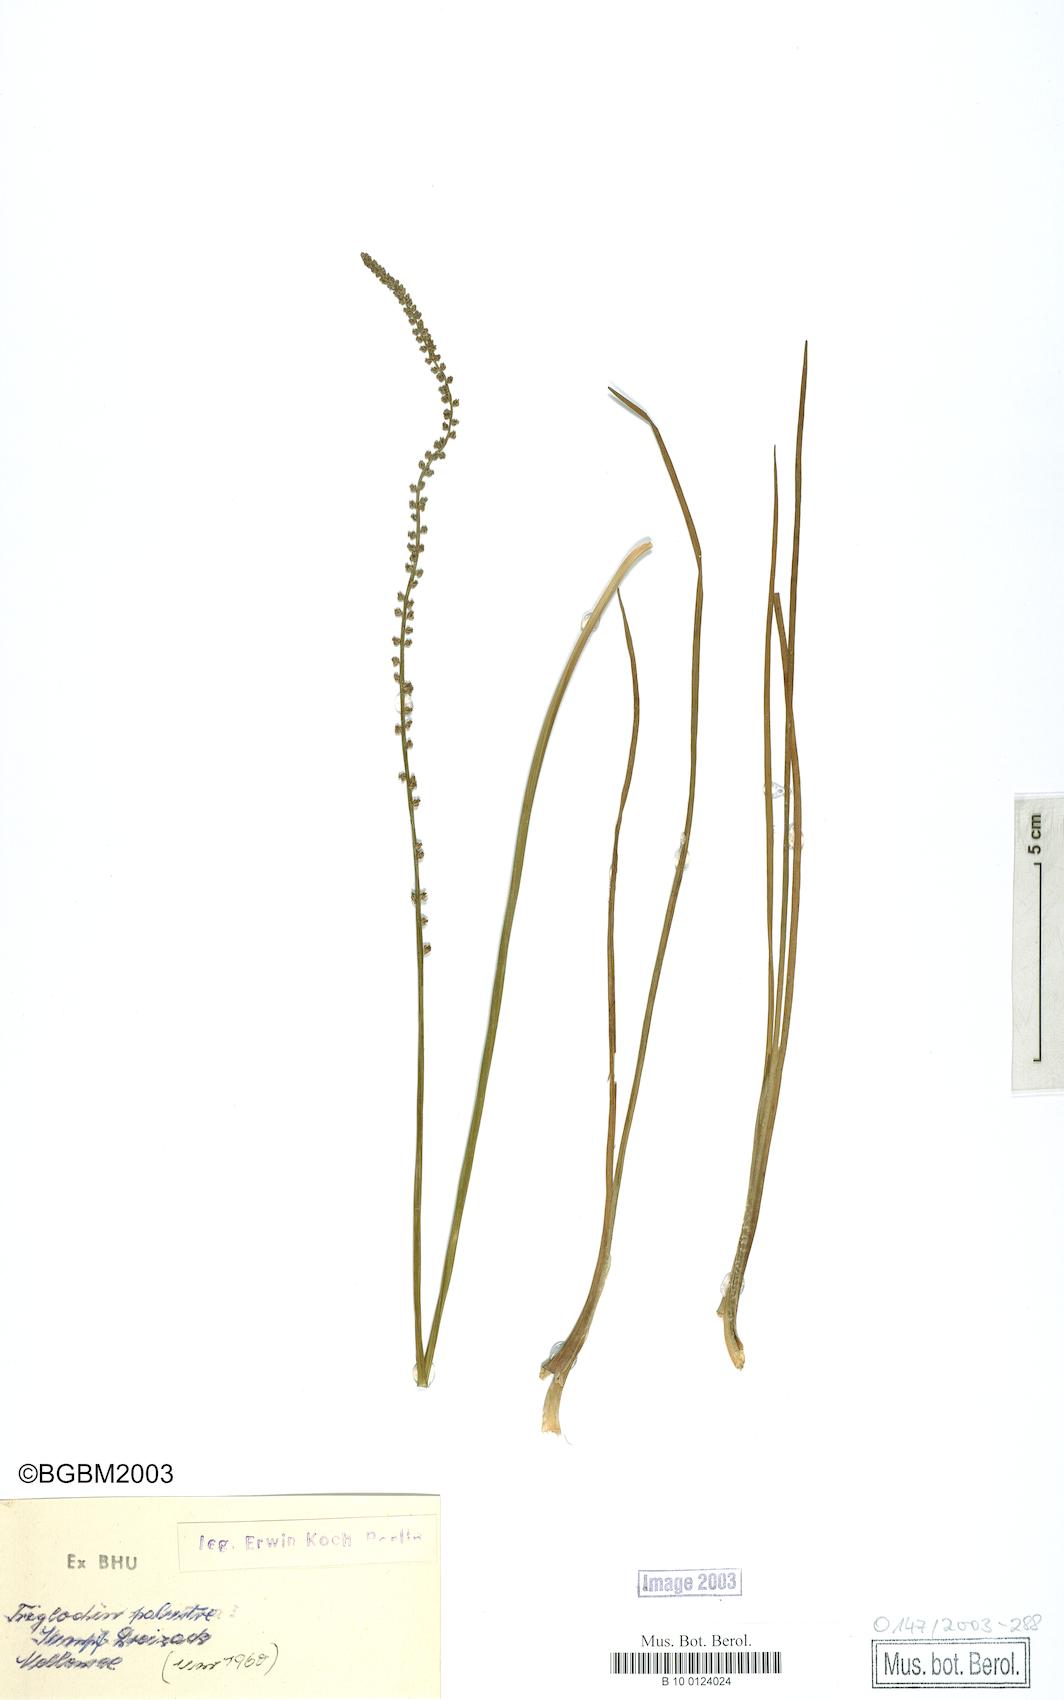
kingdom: Plantae
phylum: Tracheophyta
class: Liliopsida
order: Alismatales
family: Juncaginaceae
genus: Triglochin
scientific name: Triglochin palustris
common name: Marsh arrowgrass
